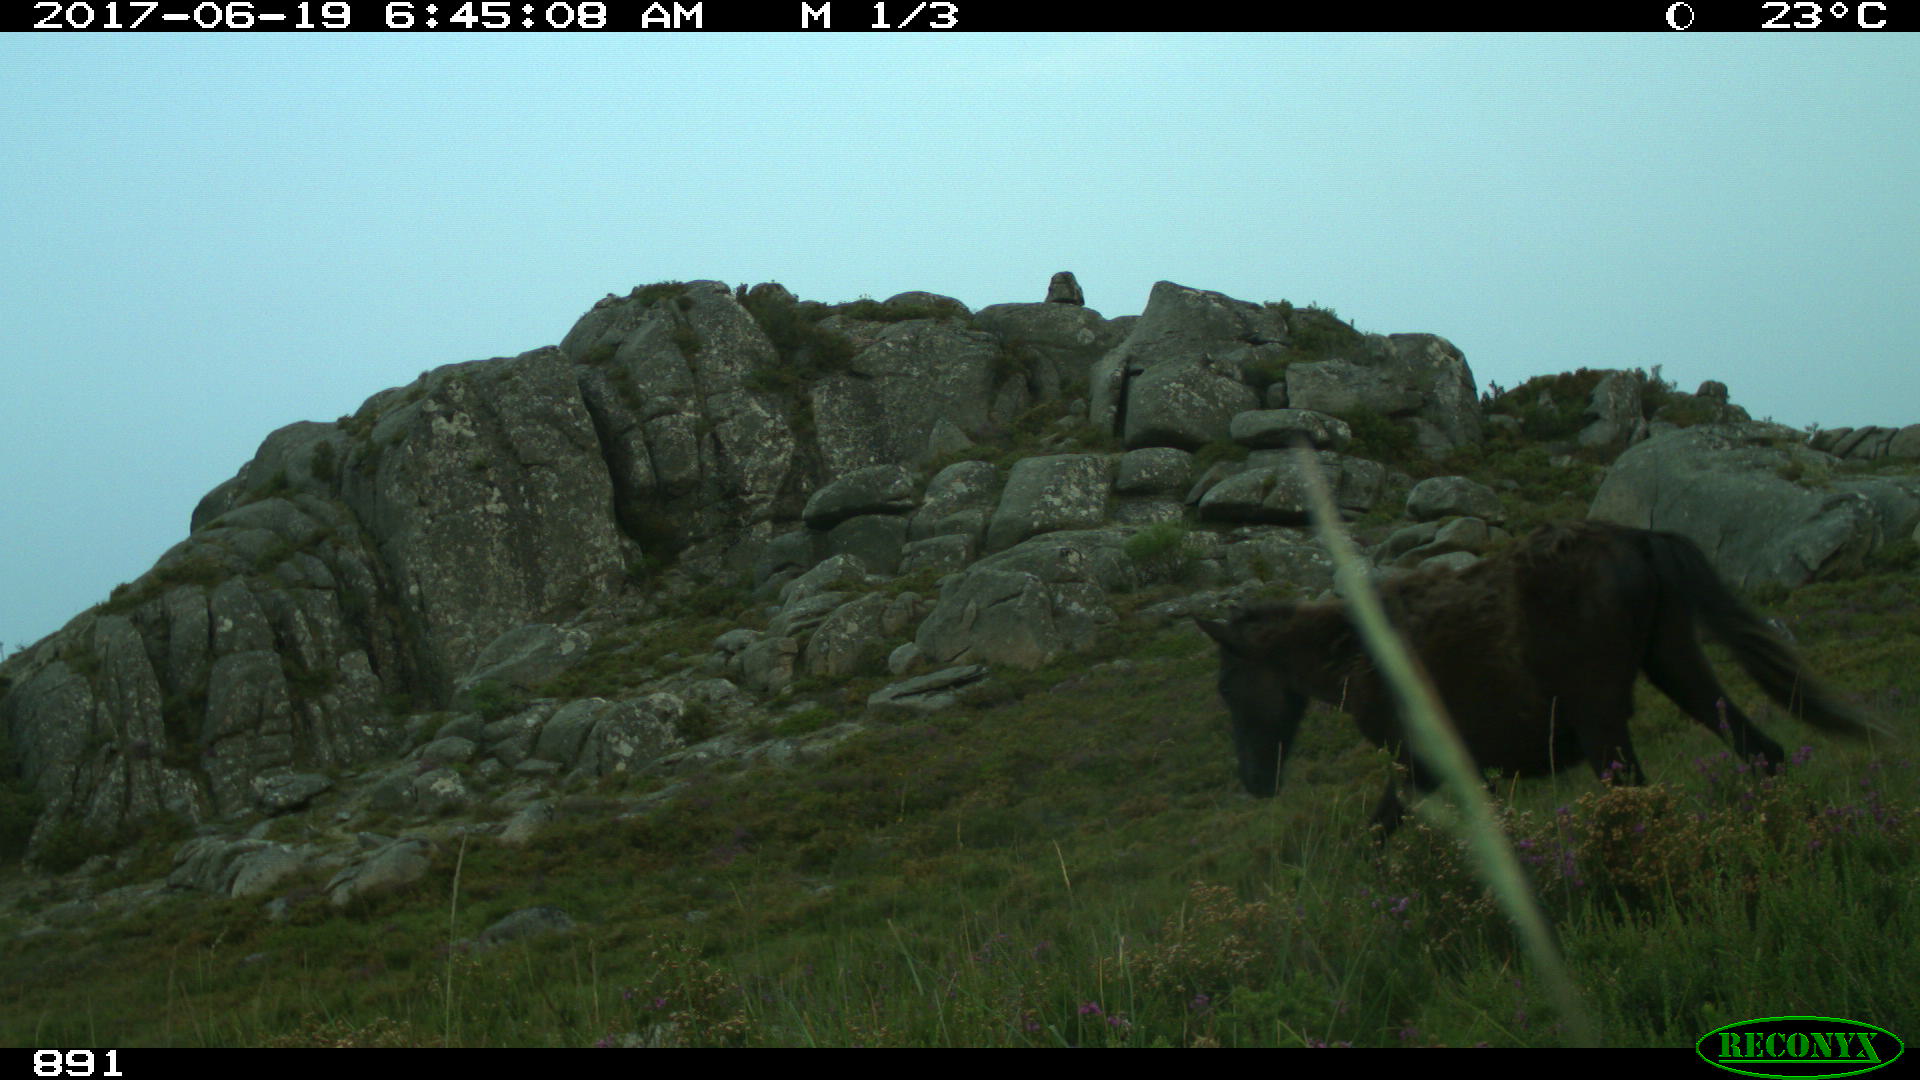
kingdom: Animalia
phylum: Chordata
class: Mammalia
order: Perissodactyla
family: Equidae
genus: Equus
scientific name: Equus caballus
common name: Horse
